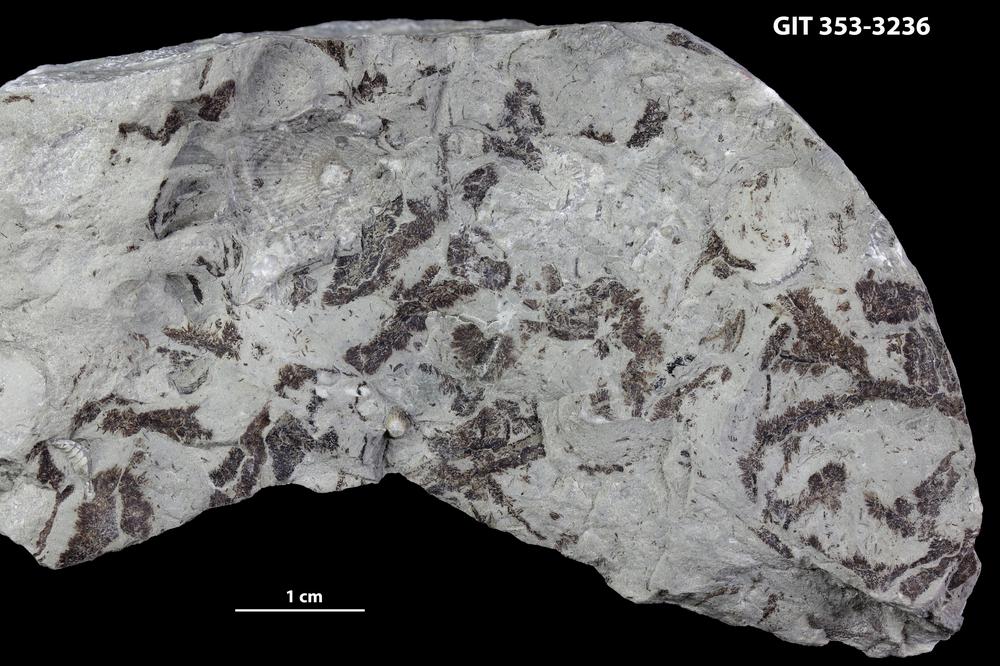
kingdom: Plantae
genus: Leveilleites
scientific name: Leveilleites hartnageli
